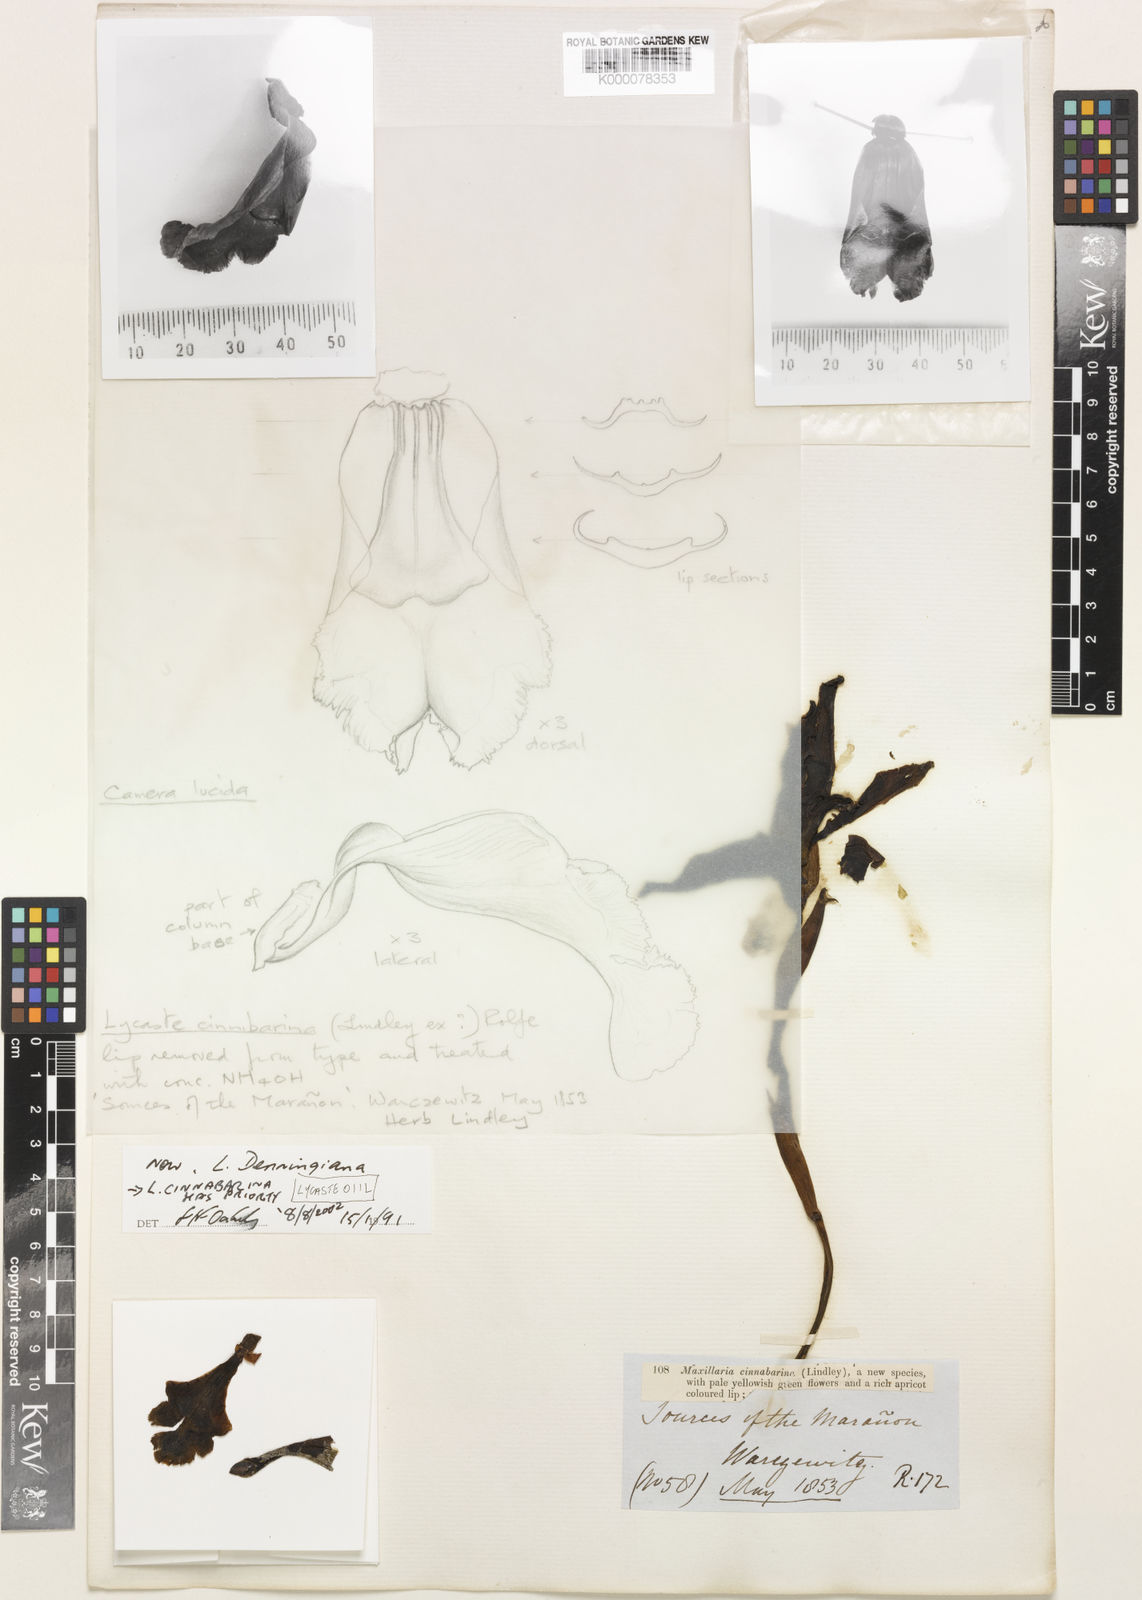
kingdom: Plantae
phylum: Tracheophyta
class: Liliopsida
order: Asparagales
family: Orchidaceae
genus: Ida
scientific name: Ida cinnabarina
